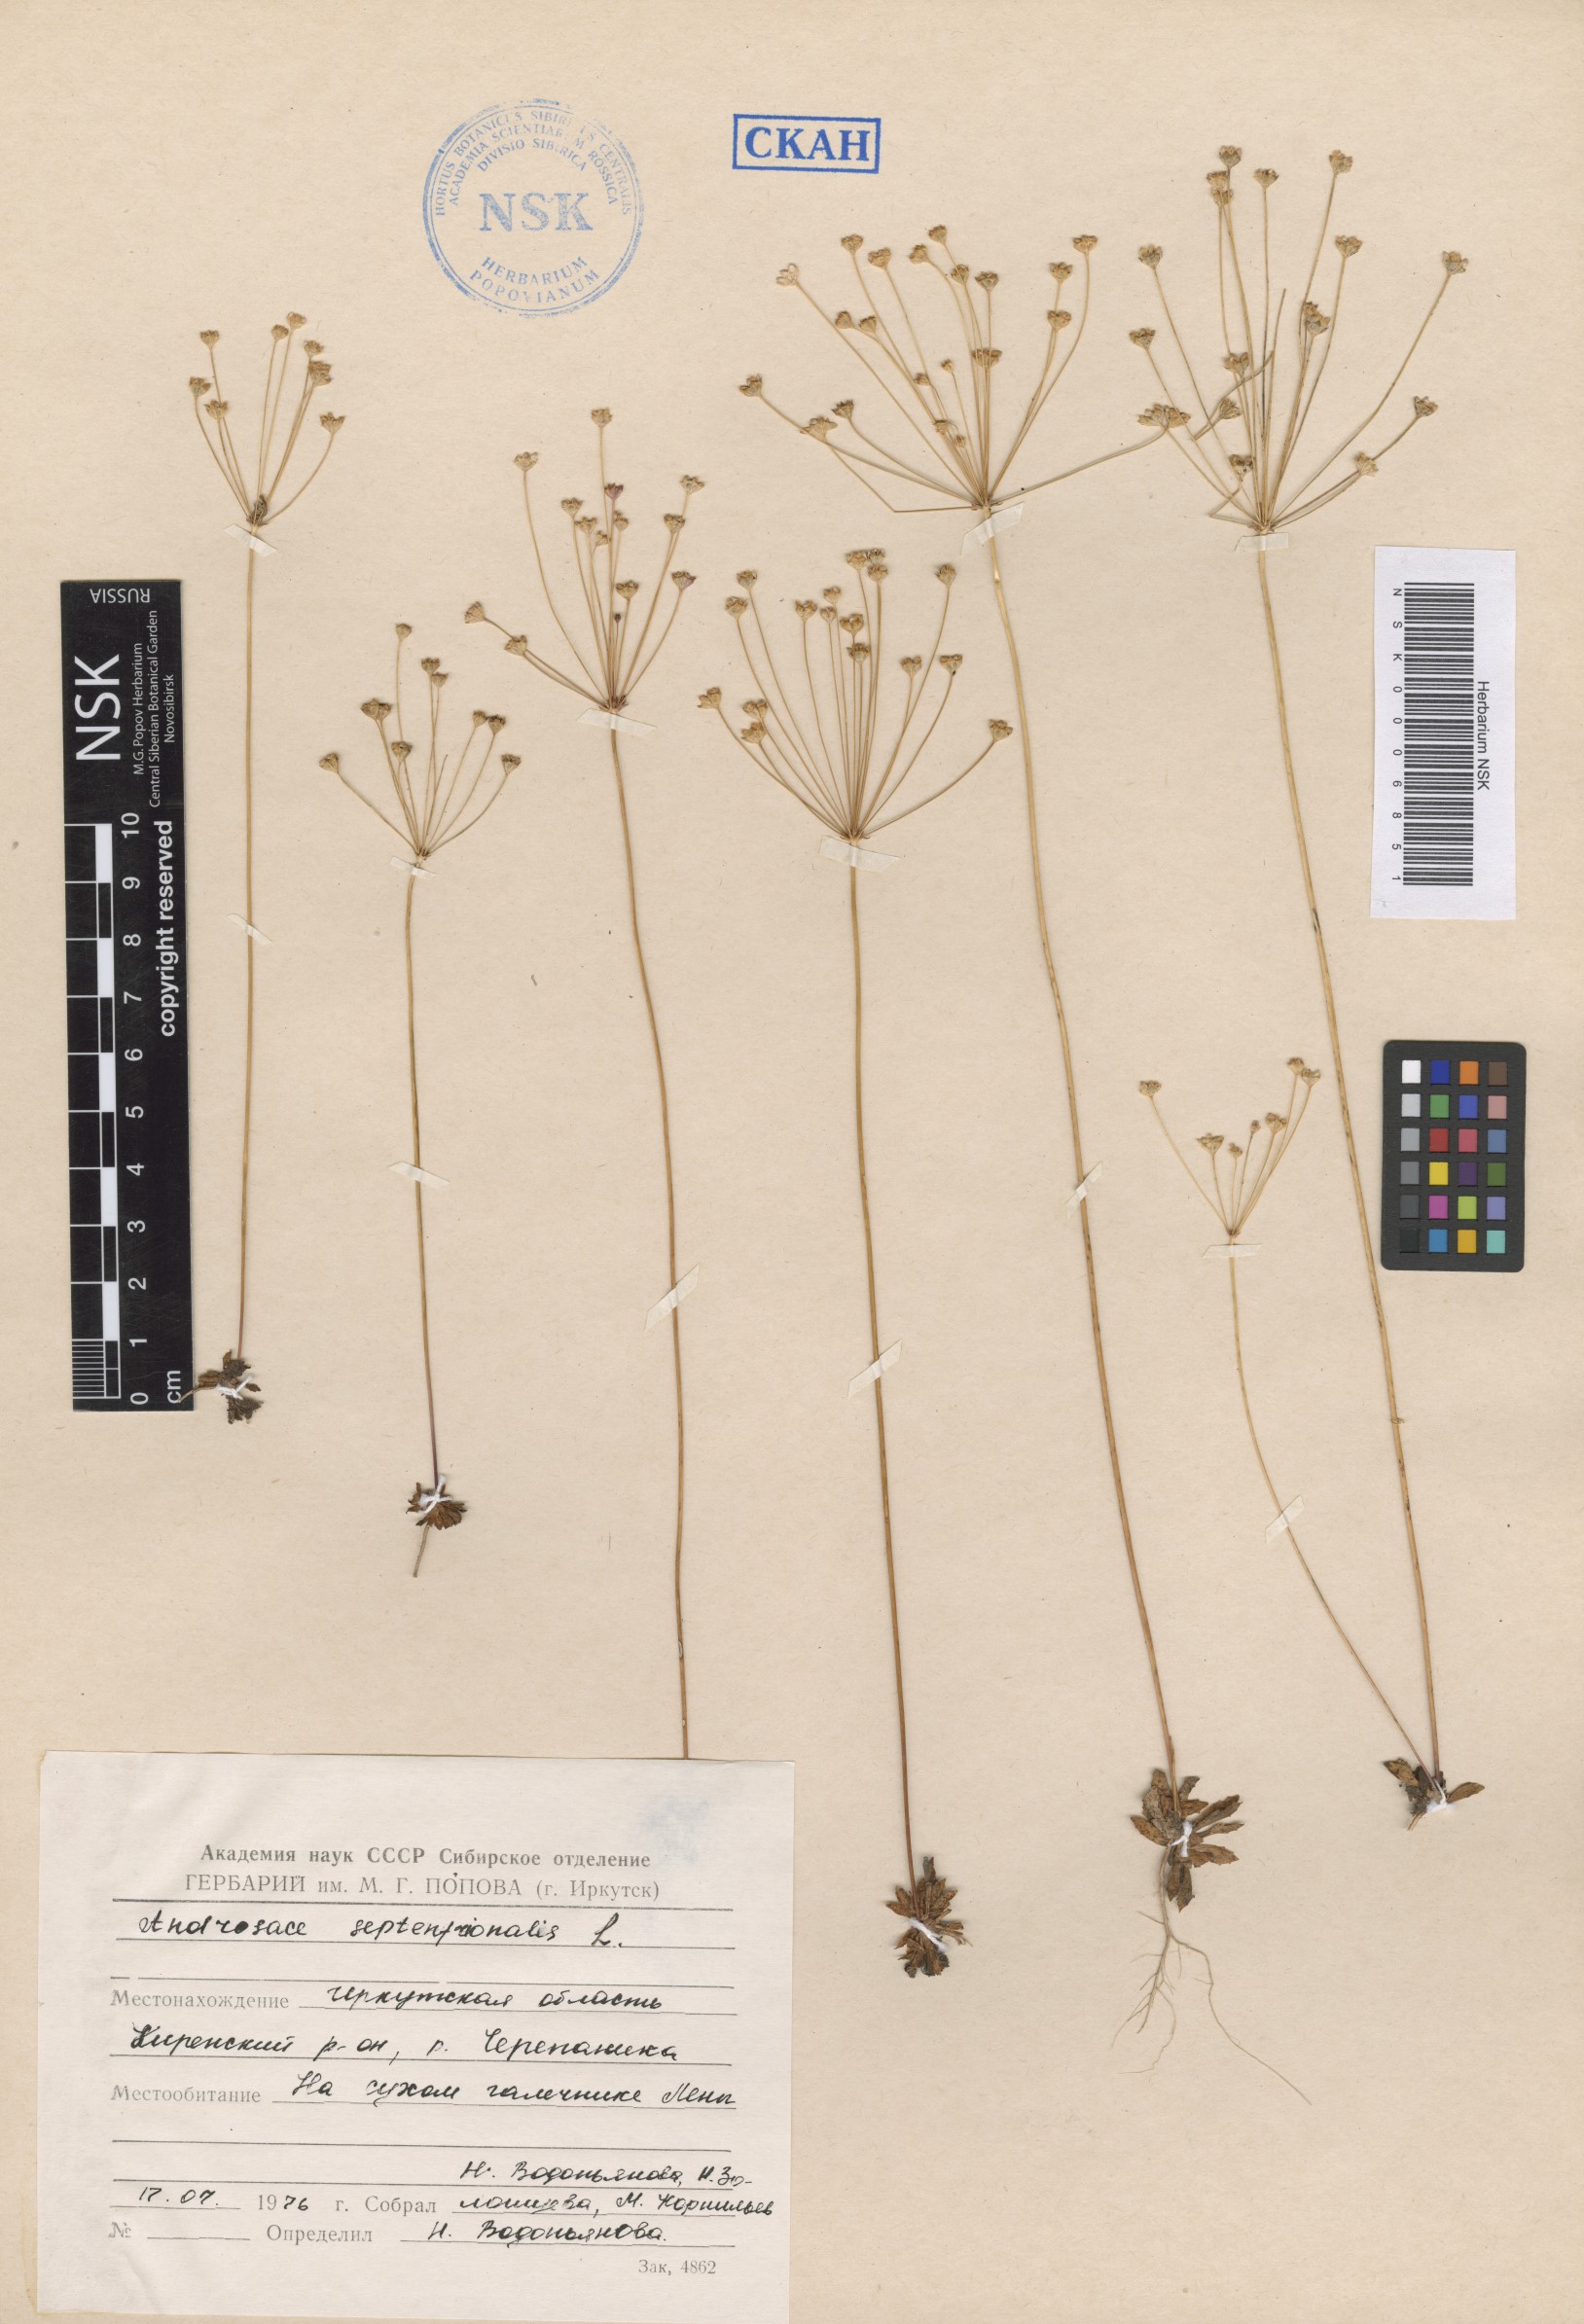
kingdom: Plantae
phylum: Tracheophyta
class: Magnoliopsida
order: Ericales
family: Primulaceae
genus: Androsace
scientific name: Androsace septentrionalis
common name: Hairy northern fairy-candelabra
